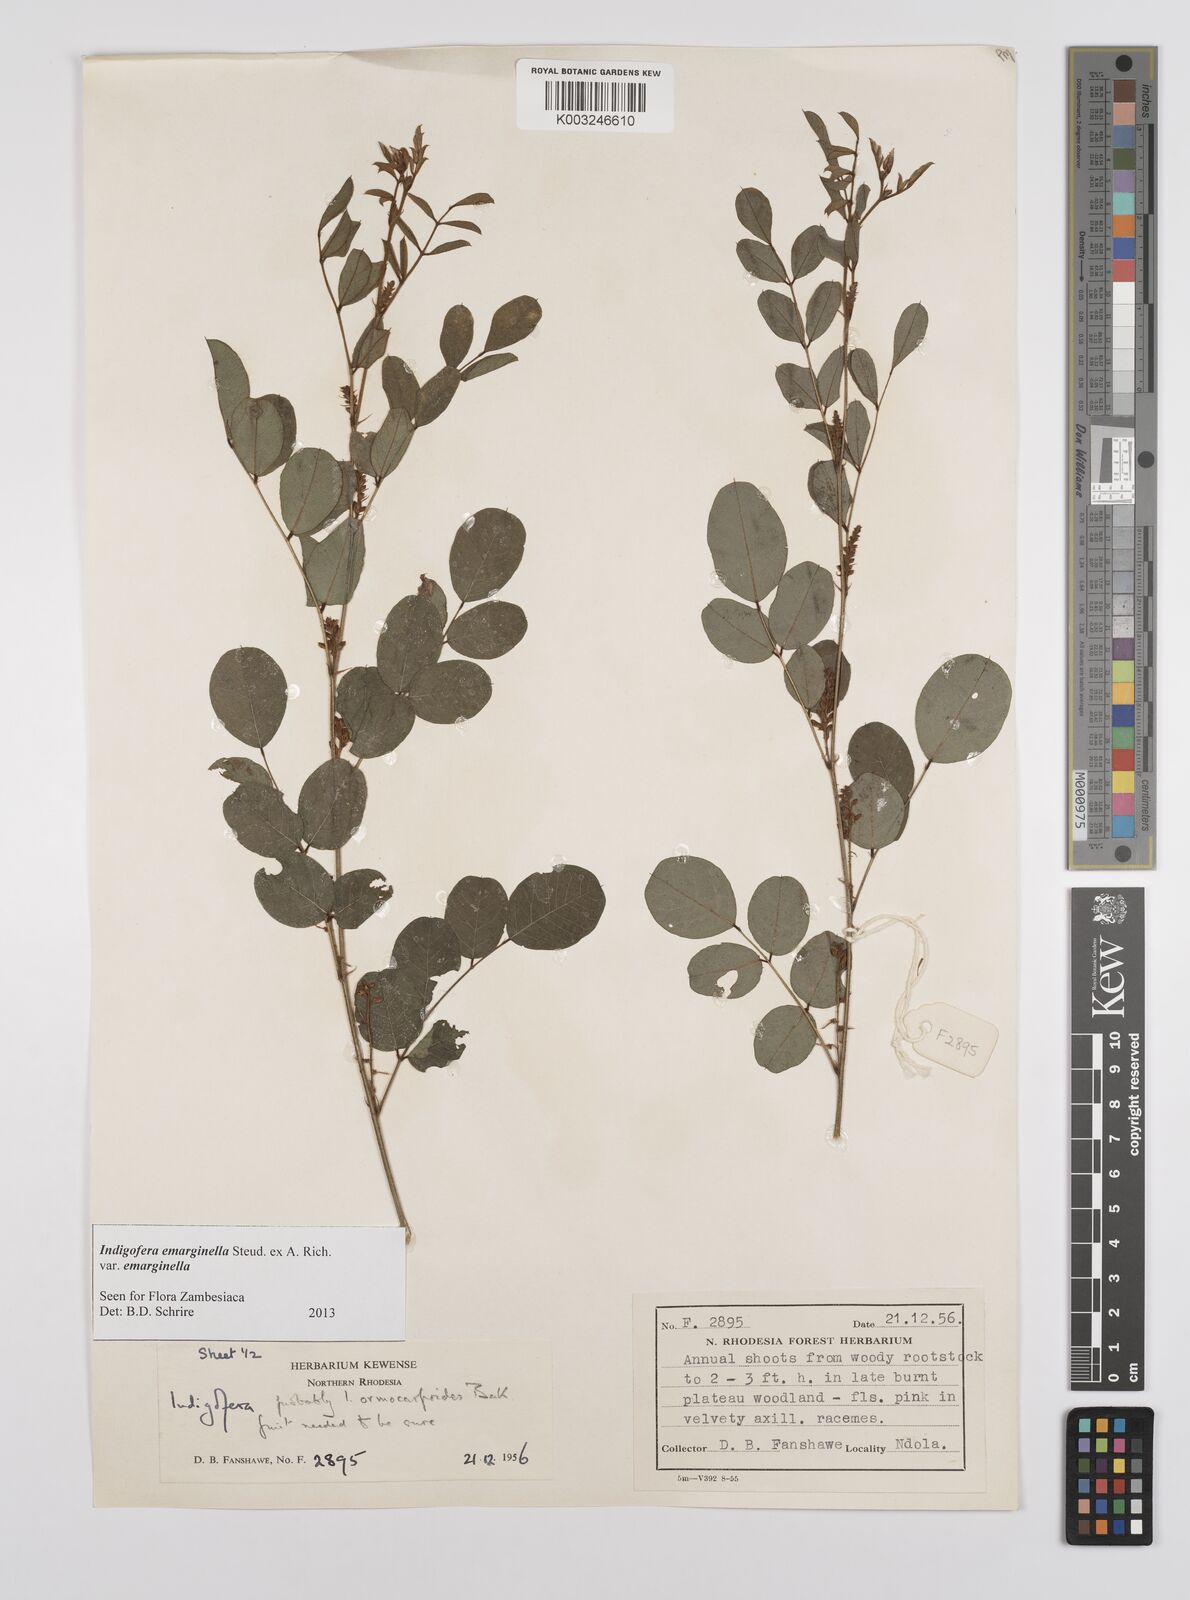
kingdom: Plantae
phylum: Tracheophyta
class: Magnoliopsida
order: Fabales
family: Fabaceae
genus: Indigofera
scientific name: Indigofera emarginella
